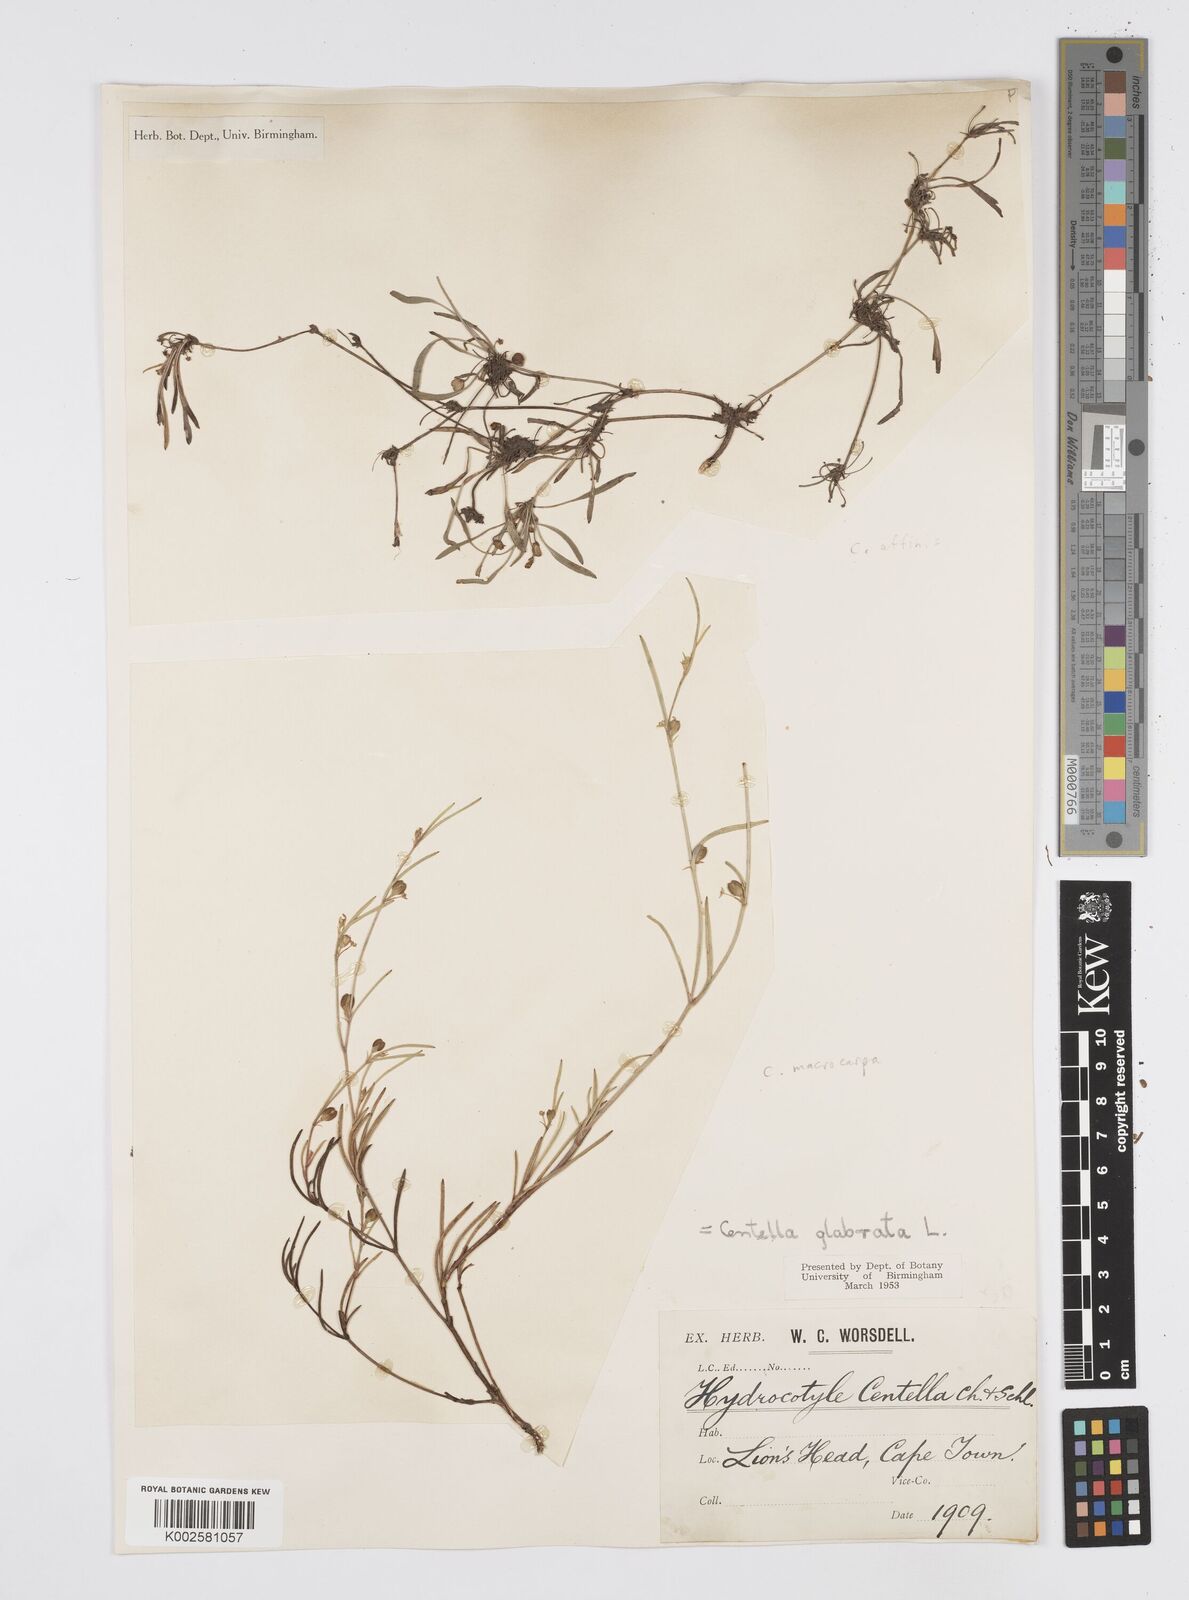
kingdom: Plantae
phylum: Tracheophyta
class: Magnoliopsida
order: Apiales
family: Apiaceae
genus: Centella
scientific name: Centella glabrata
